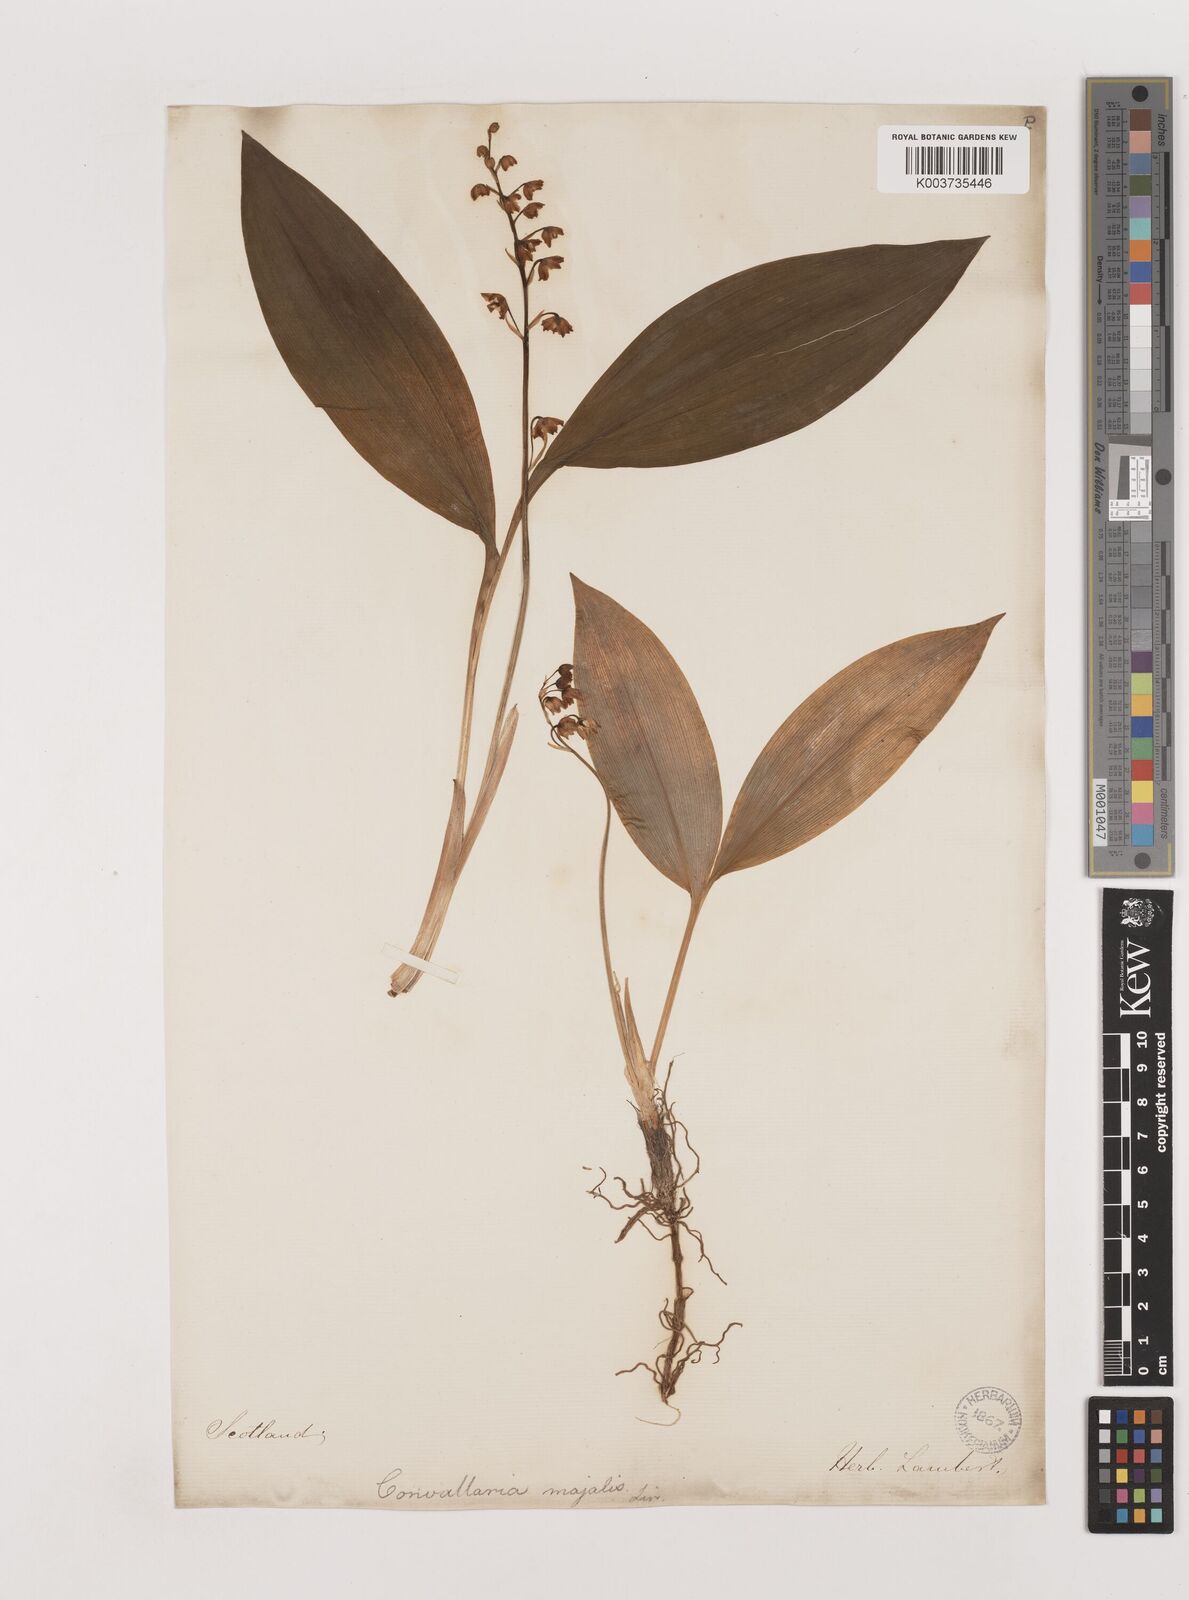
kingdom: Plantae
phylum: Tracheophyta
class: Liliopsida
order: Asparagales
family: Asparagaceae
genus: Convallaria
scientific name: Convallaria majalis
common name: Lily-of-the-valley
